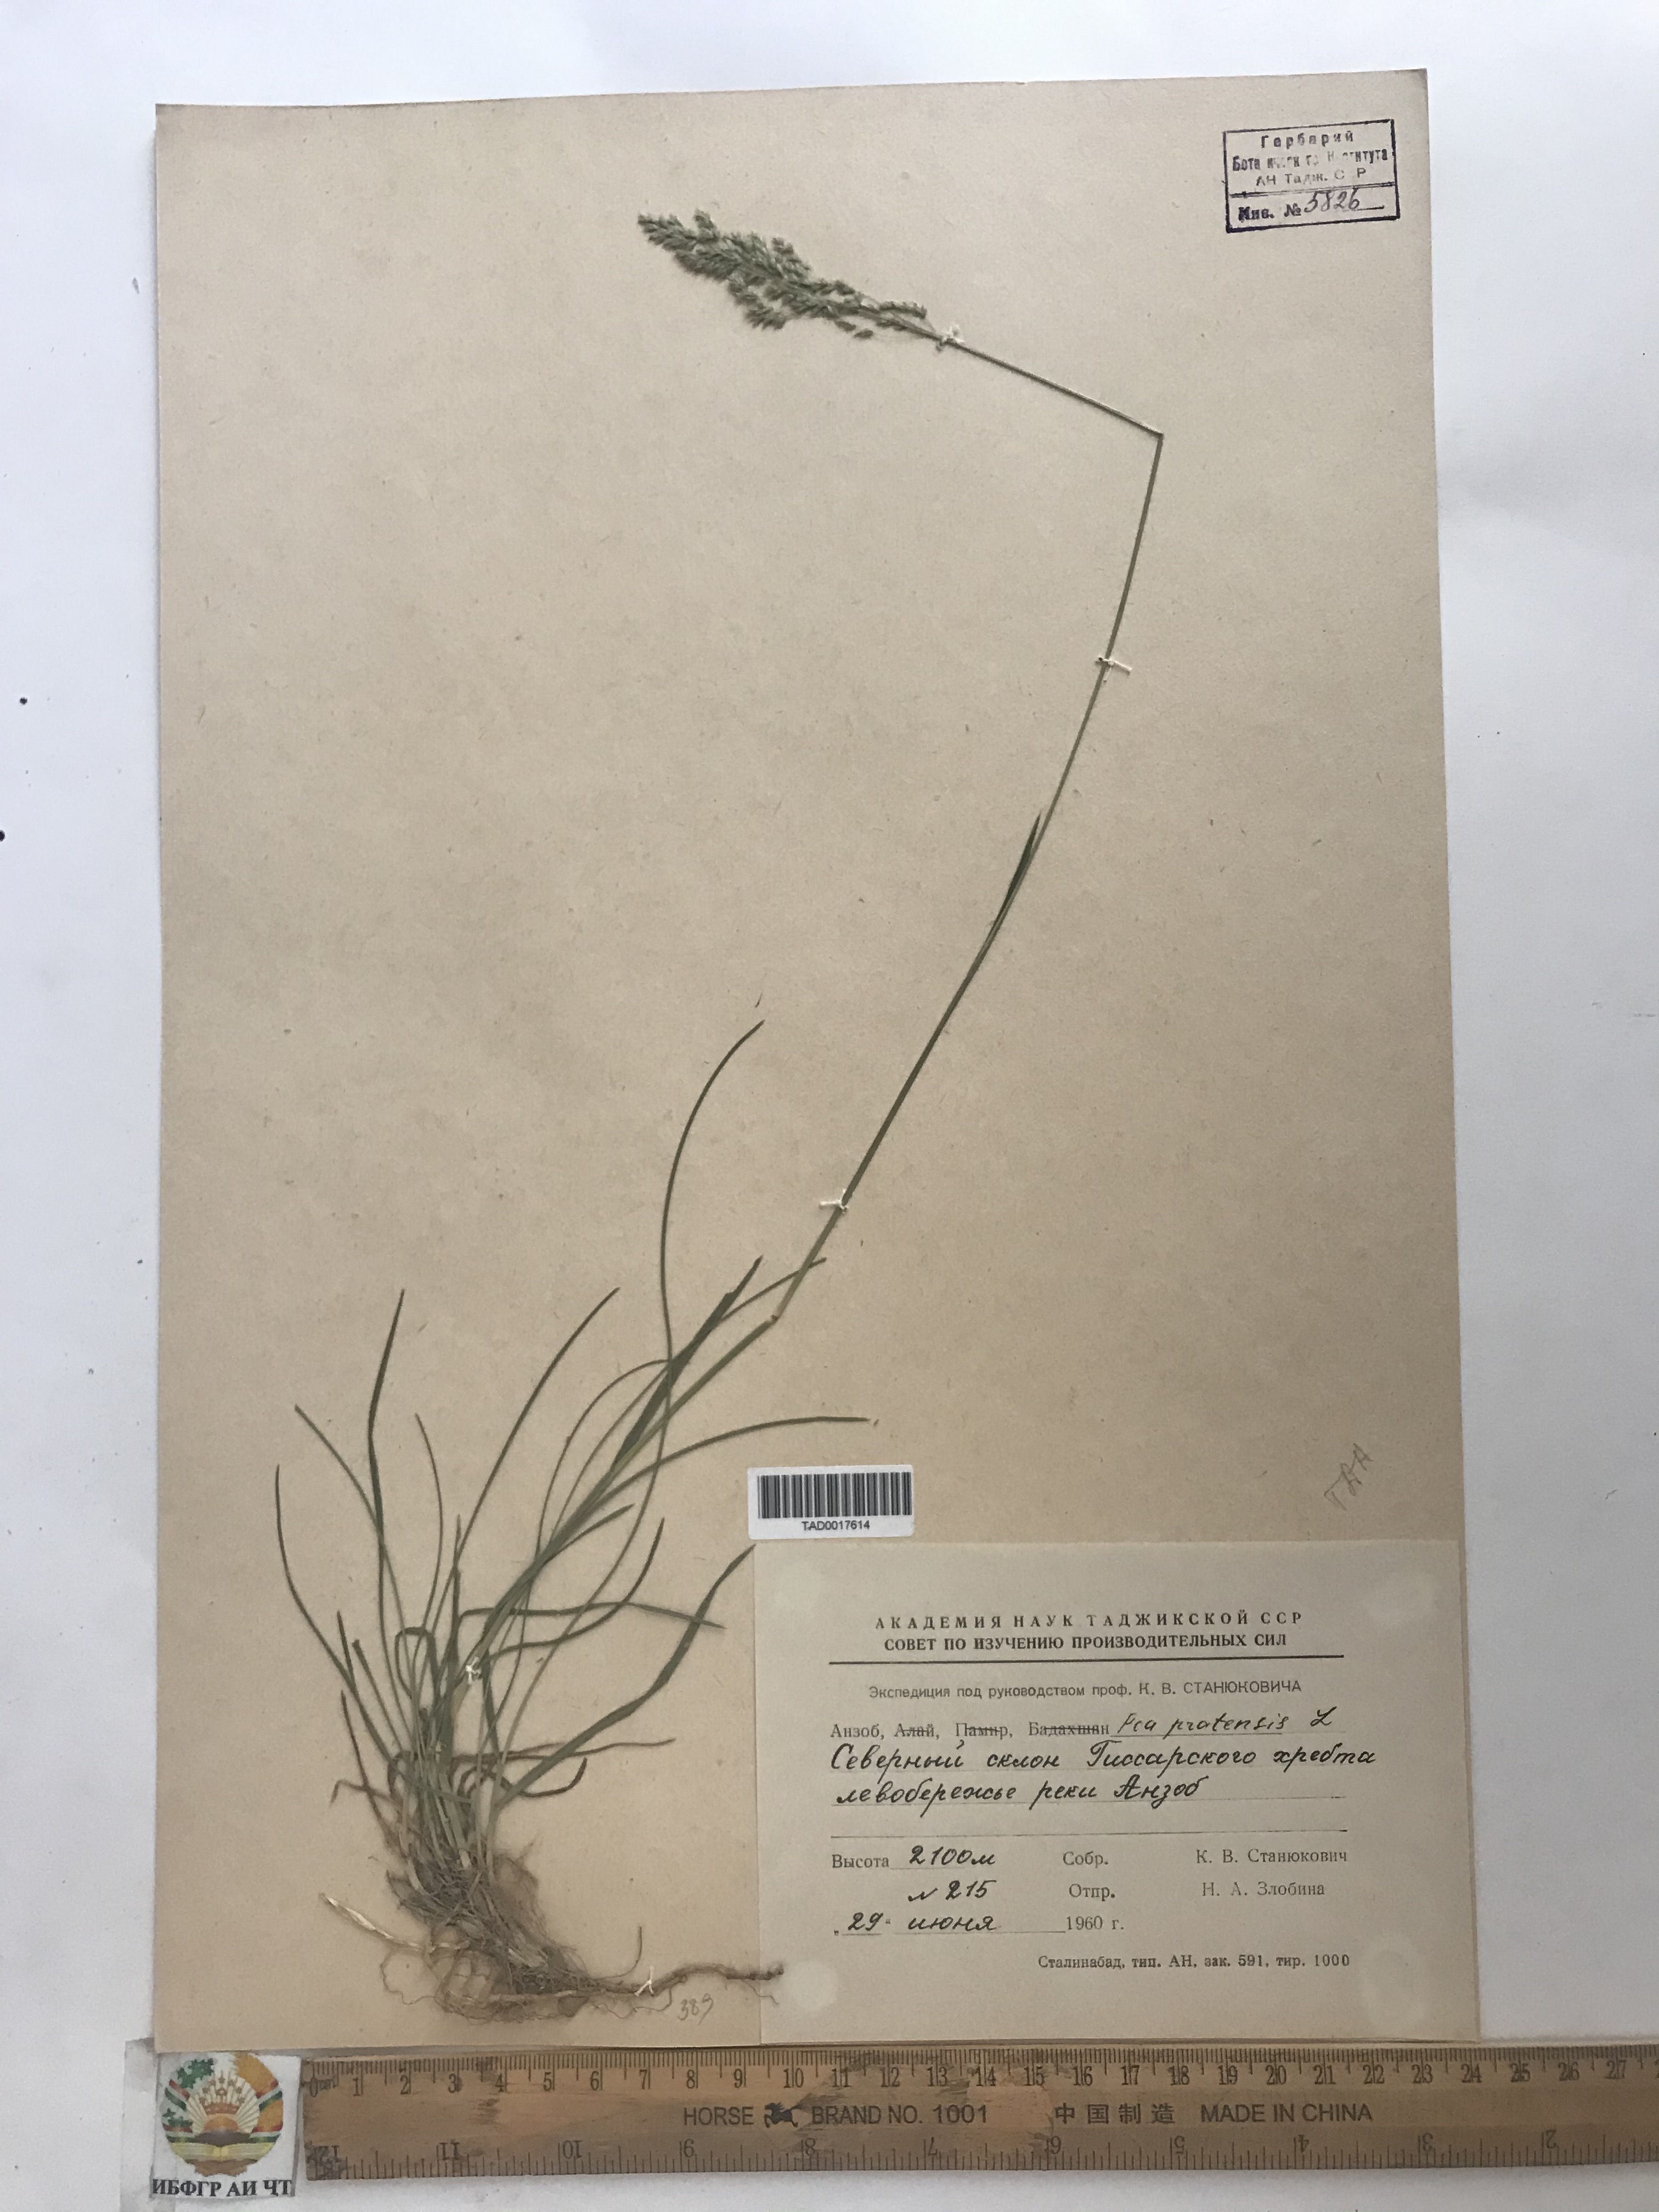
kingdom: Plantae
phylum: Tracheophyta
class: Liliopsida
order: Poales
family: Poaceae
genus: Poa
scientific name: Poa pratensis
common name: Kentucky bluegrass
